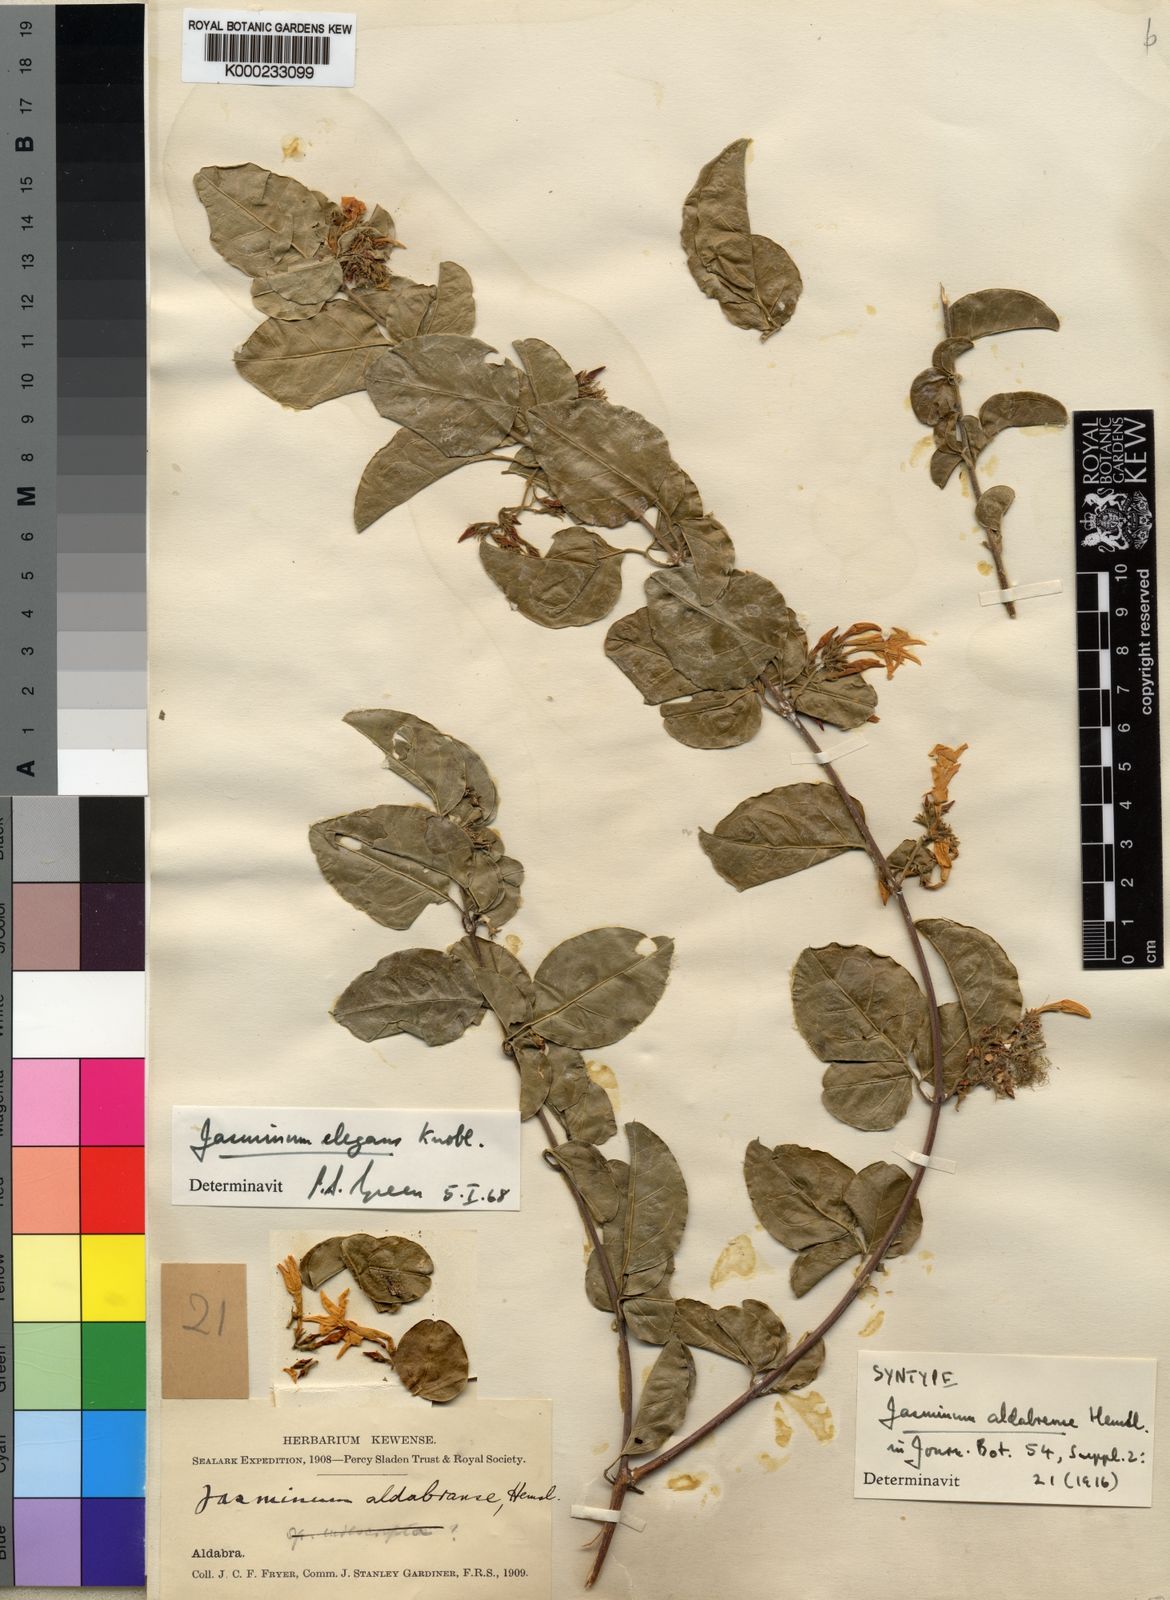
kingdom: Plantae
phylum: Tracheophyta
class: Magnoliopsida
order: Lamiales
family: Oleaceae
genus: Jasminum
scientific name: Jasminum elegans
